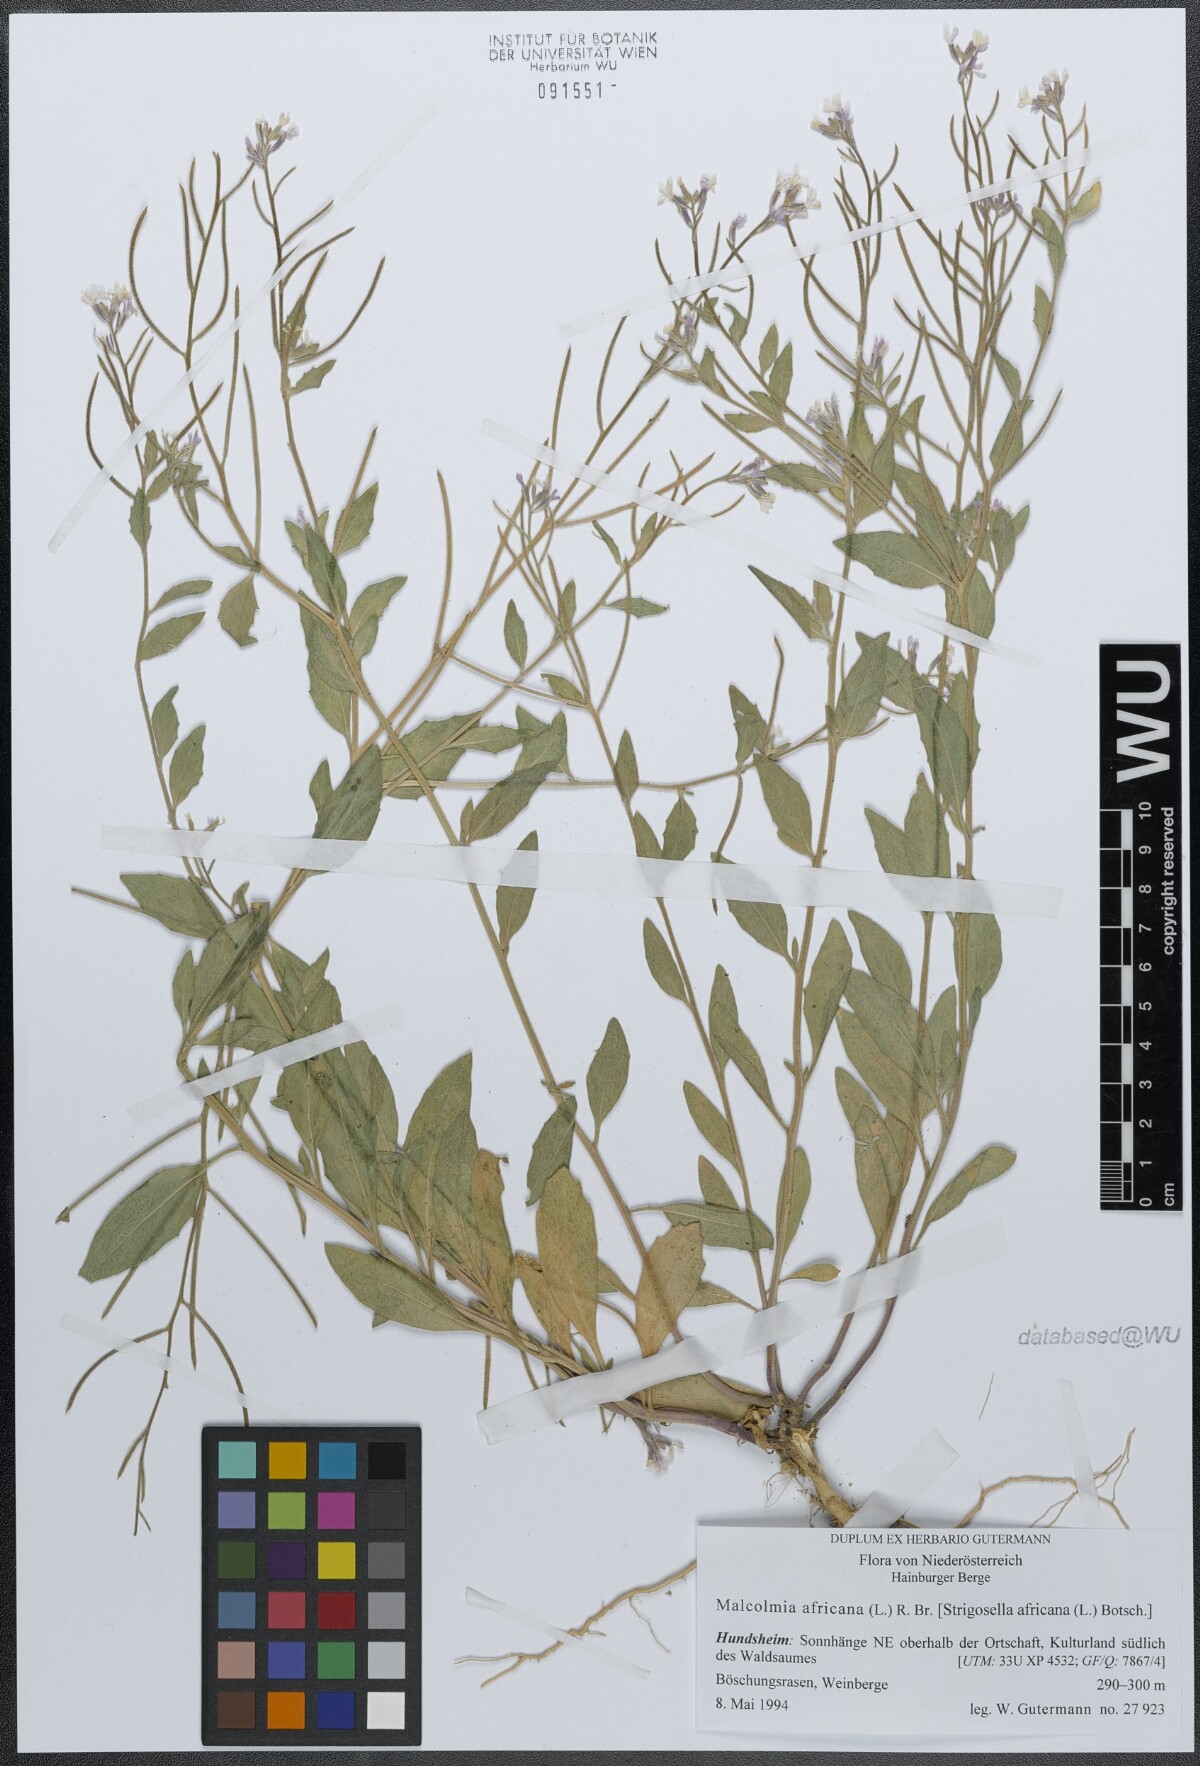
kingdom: Plantae
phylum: Tracheophyta
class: Magnoliopsida
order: Brassicales
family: Brassicaceae
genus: Malcolmia
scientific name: Malcolmia africana
